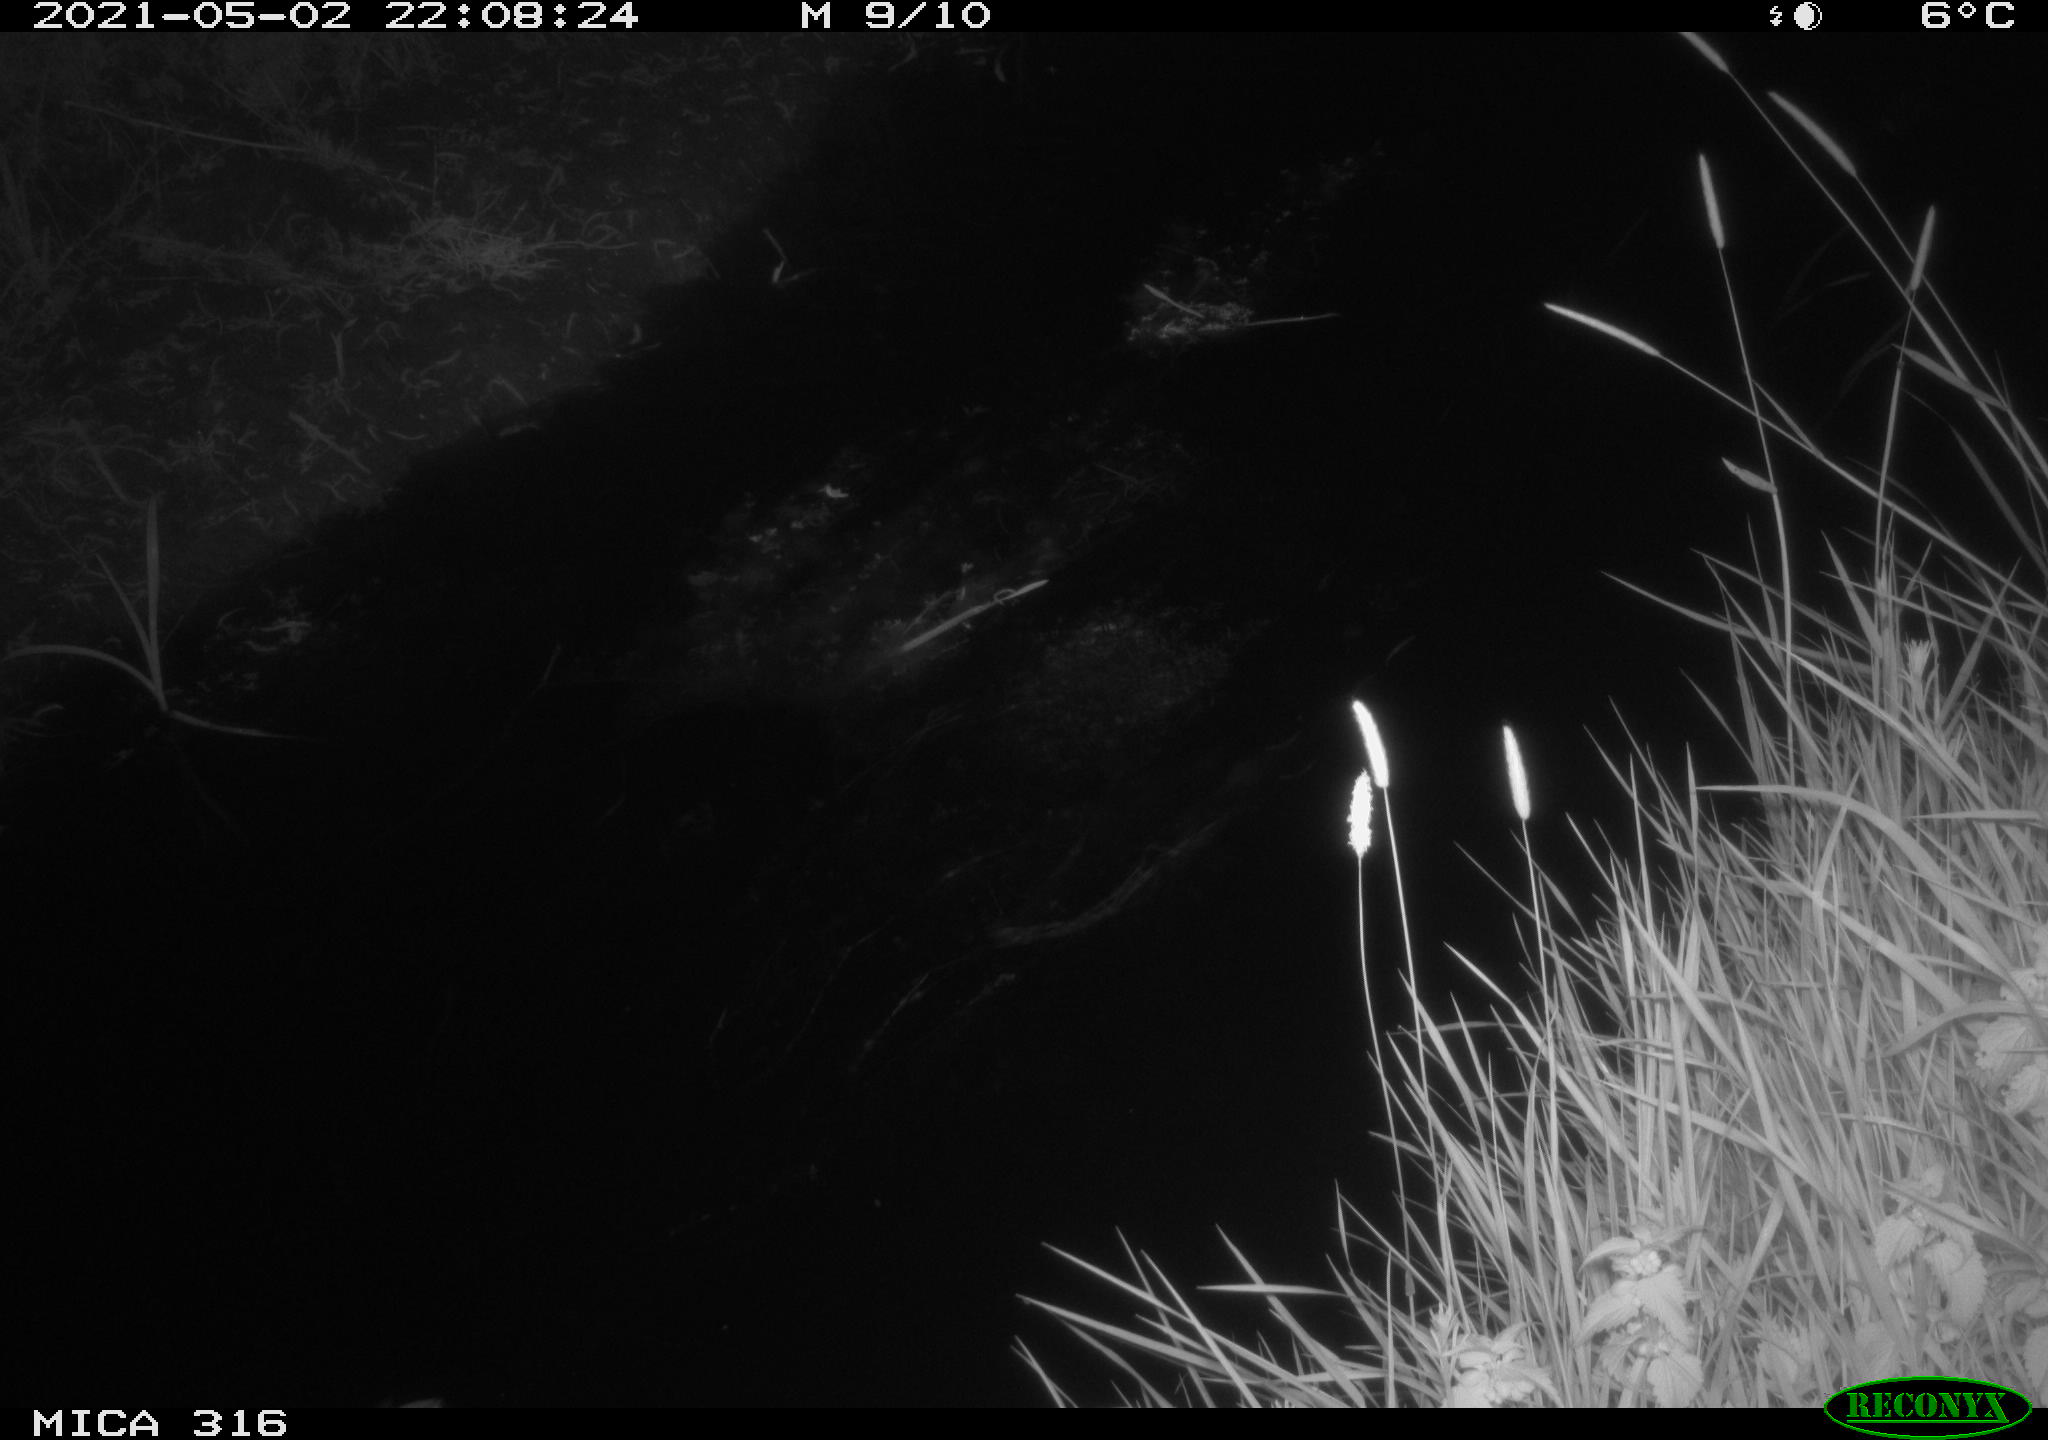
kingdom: Animalia
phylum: Chordata
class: Aves
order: Anseriformes
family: Anatidae
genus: Anas
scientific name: Anas platyrhynchos
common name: Mallard
